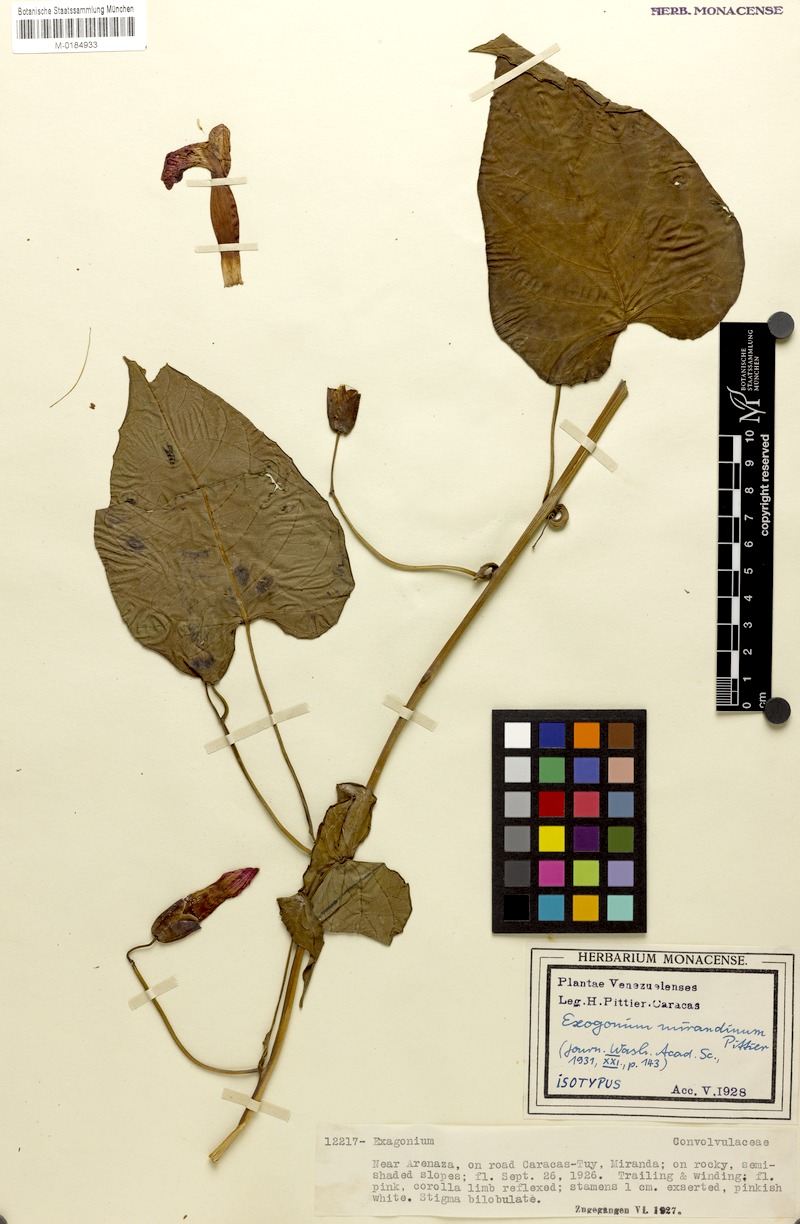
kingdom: Plantae
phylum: Tracheophyta
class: Magnoliopsida
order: Solanales
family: Convolvulaceae
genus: Ipomoea
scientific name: Ipomoea mirandina
